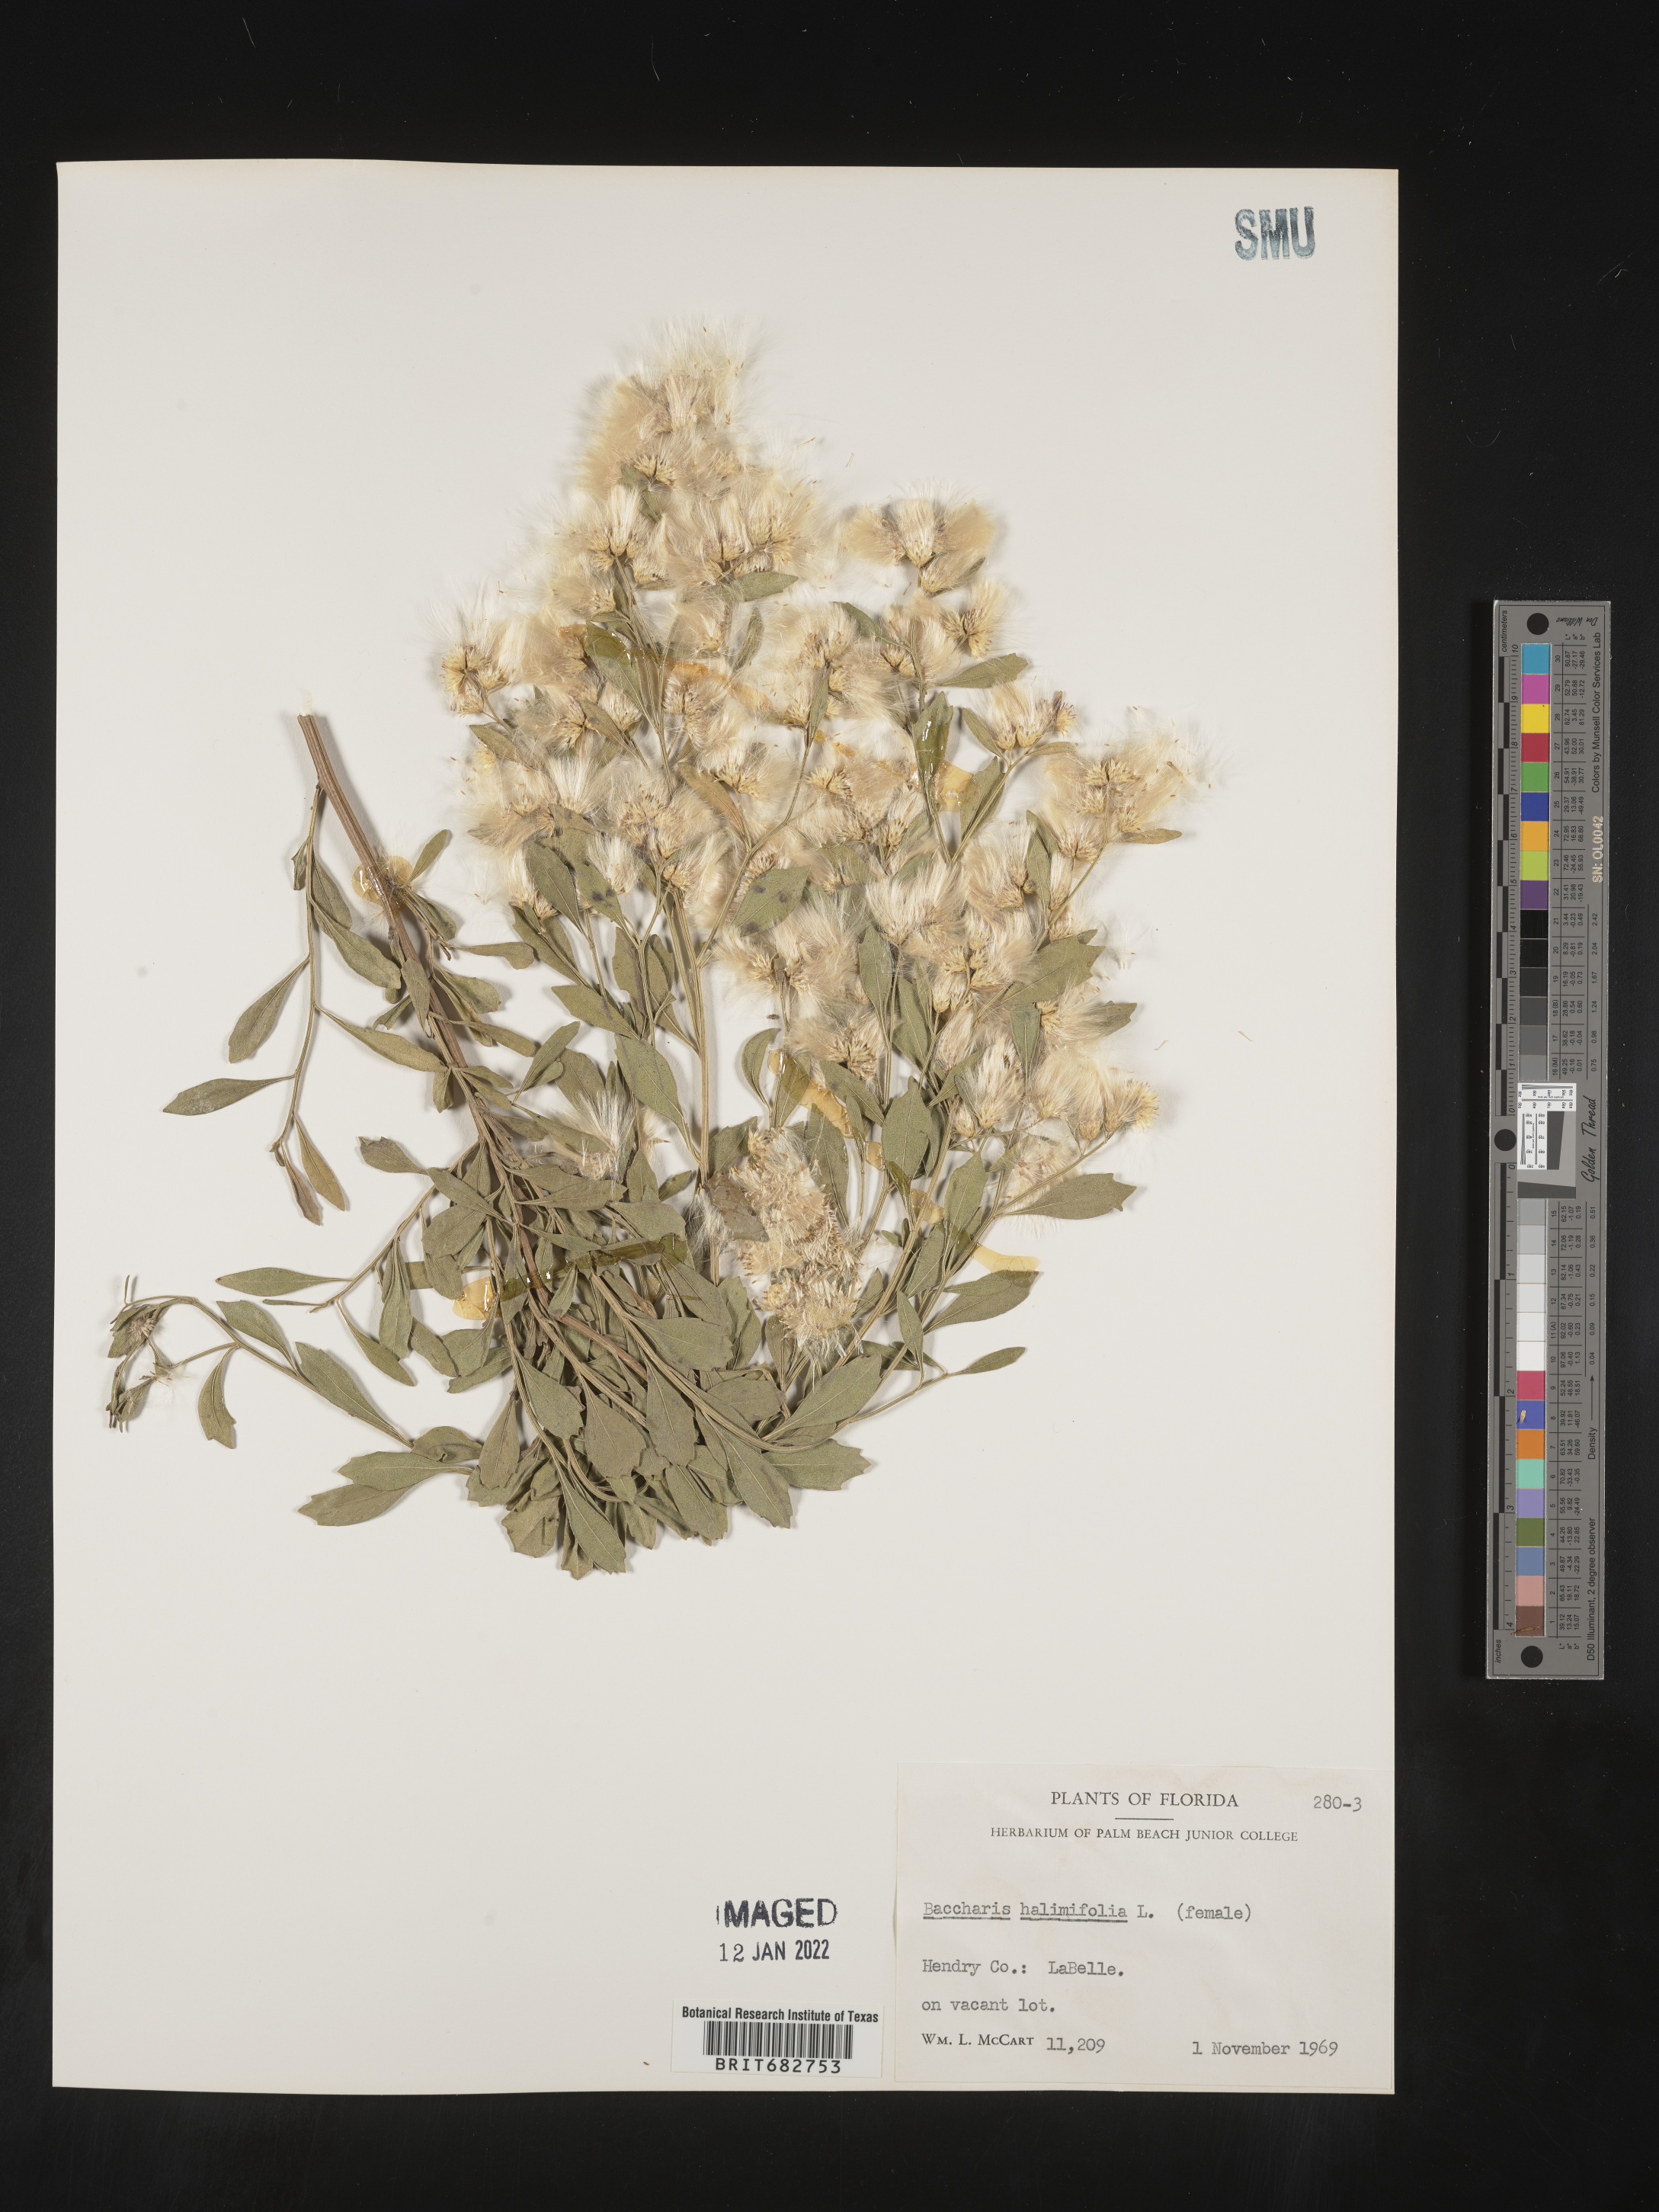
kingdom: Plantae
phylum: Tracheophyta
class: Magnoliopsida
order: Asterales
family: Asteraceae
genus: Nidorella
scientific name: Nidorella ivifolia
